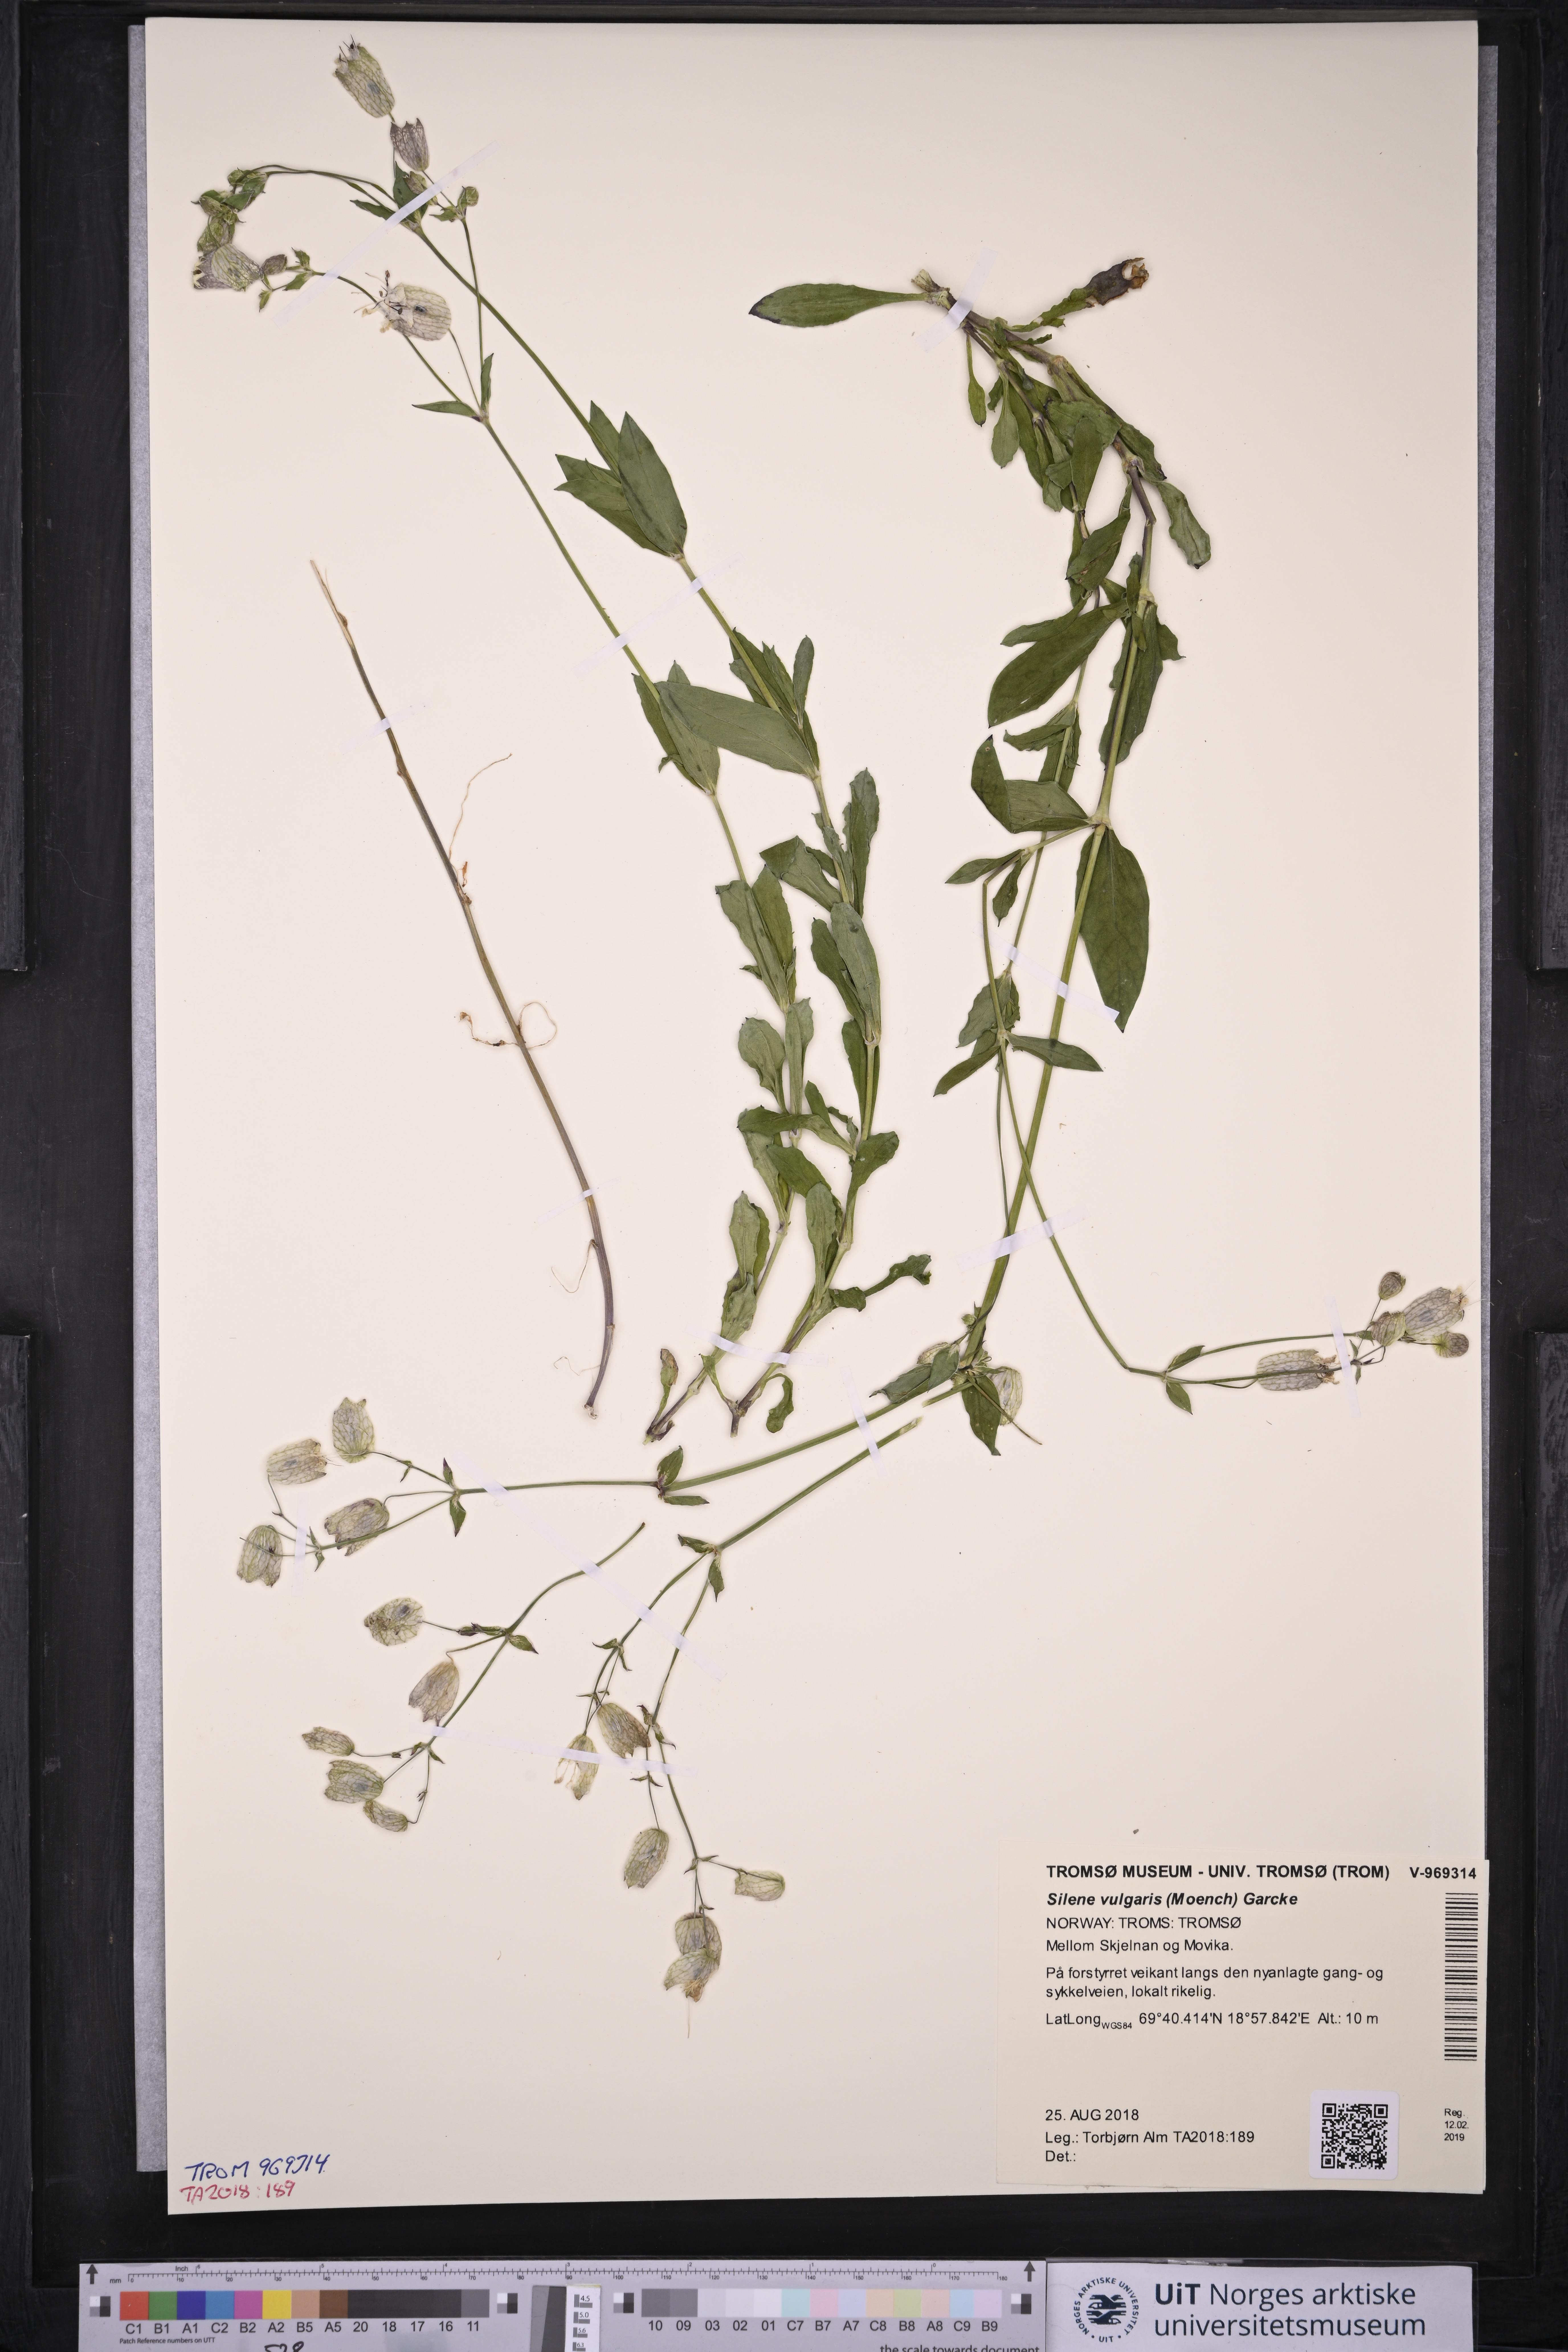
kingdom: Plantae
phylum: Tracheophyta
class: Magnoliopsida
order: Caryophyllales
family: Caryophyllaceae
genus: Silene
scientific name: Silene vulgaris
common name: Bladder campion
